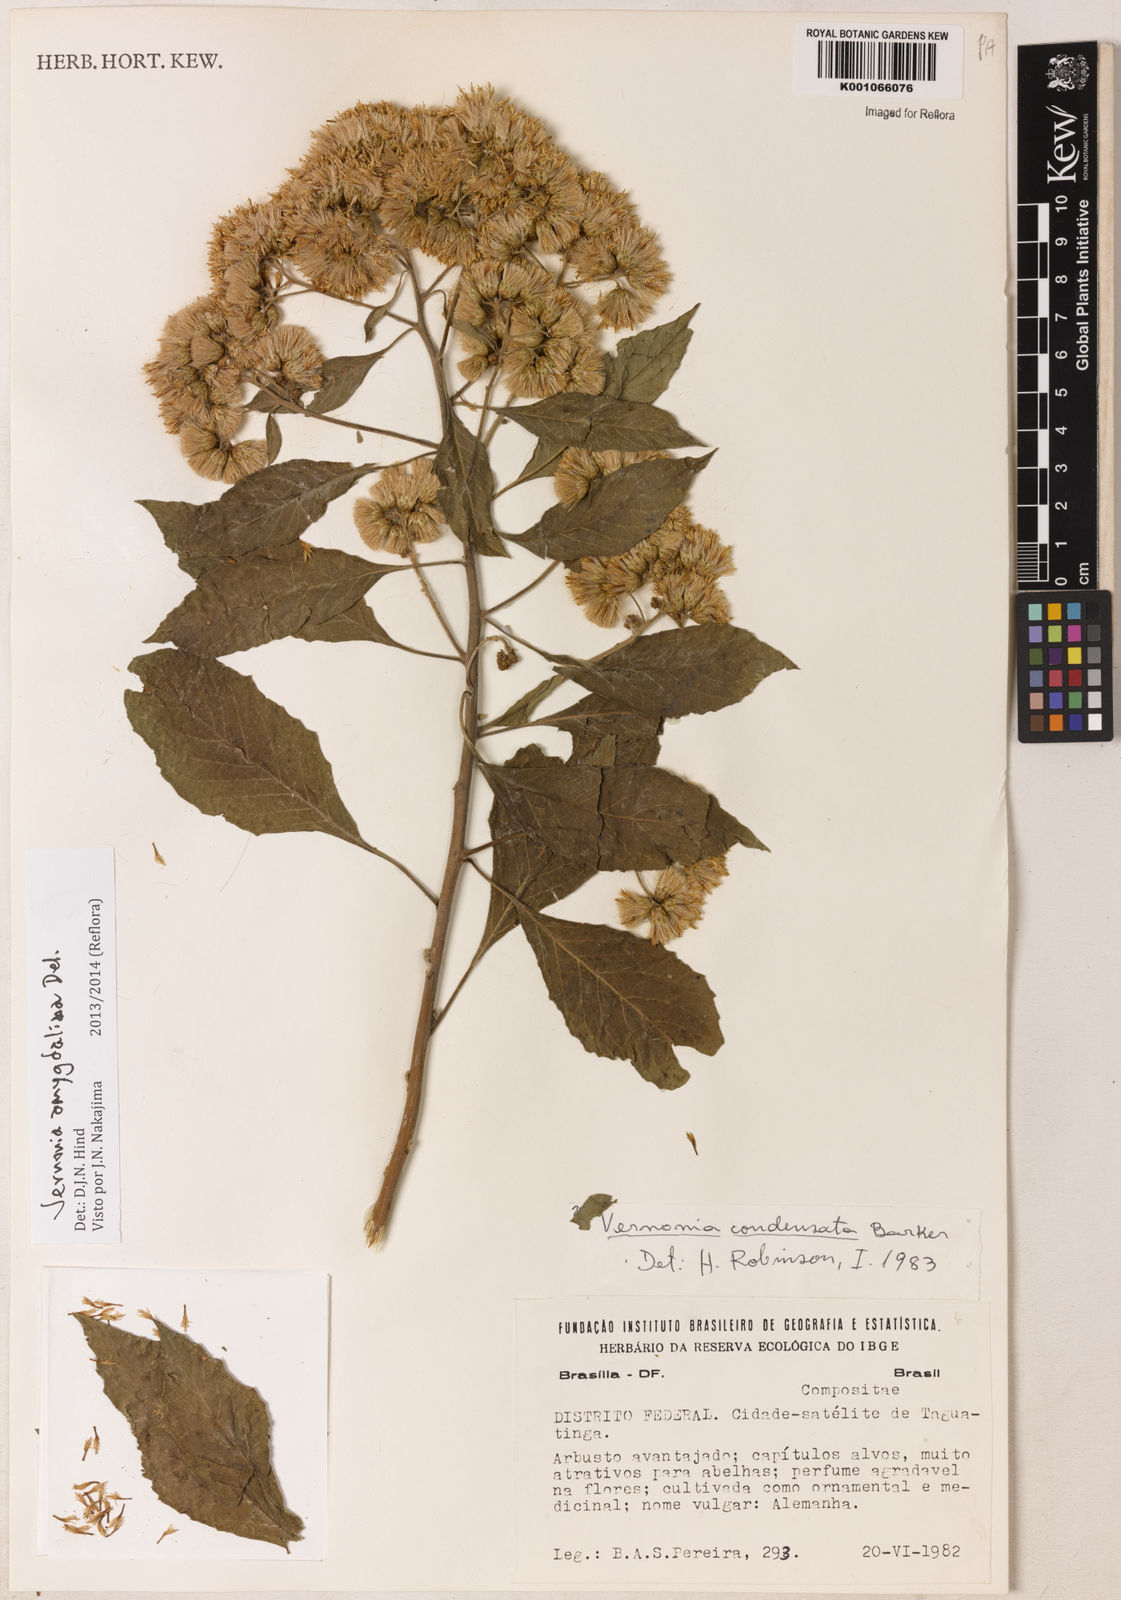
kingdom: Plantae
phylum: Tracheophyta
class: Magnoliopsida
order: Asterales
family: Asteraceae
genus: Gymnanthemum
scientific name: Gymnanthemum amygdalinum
